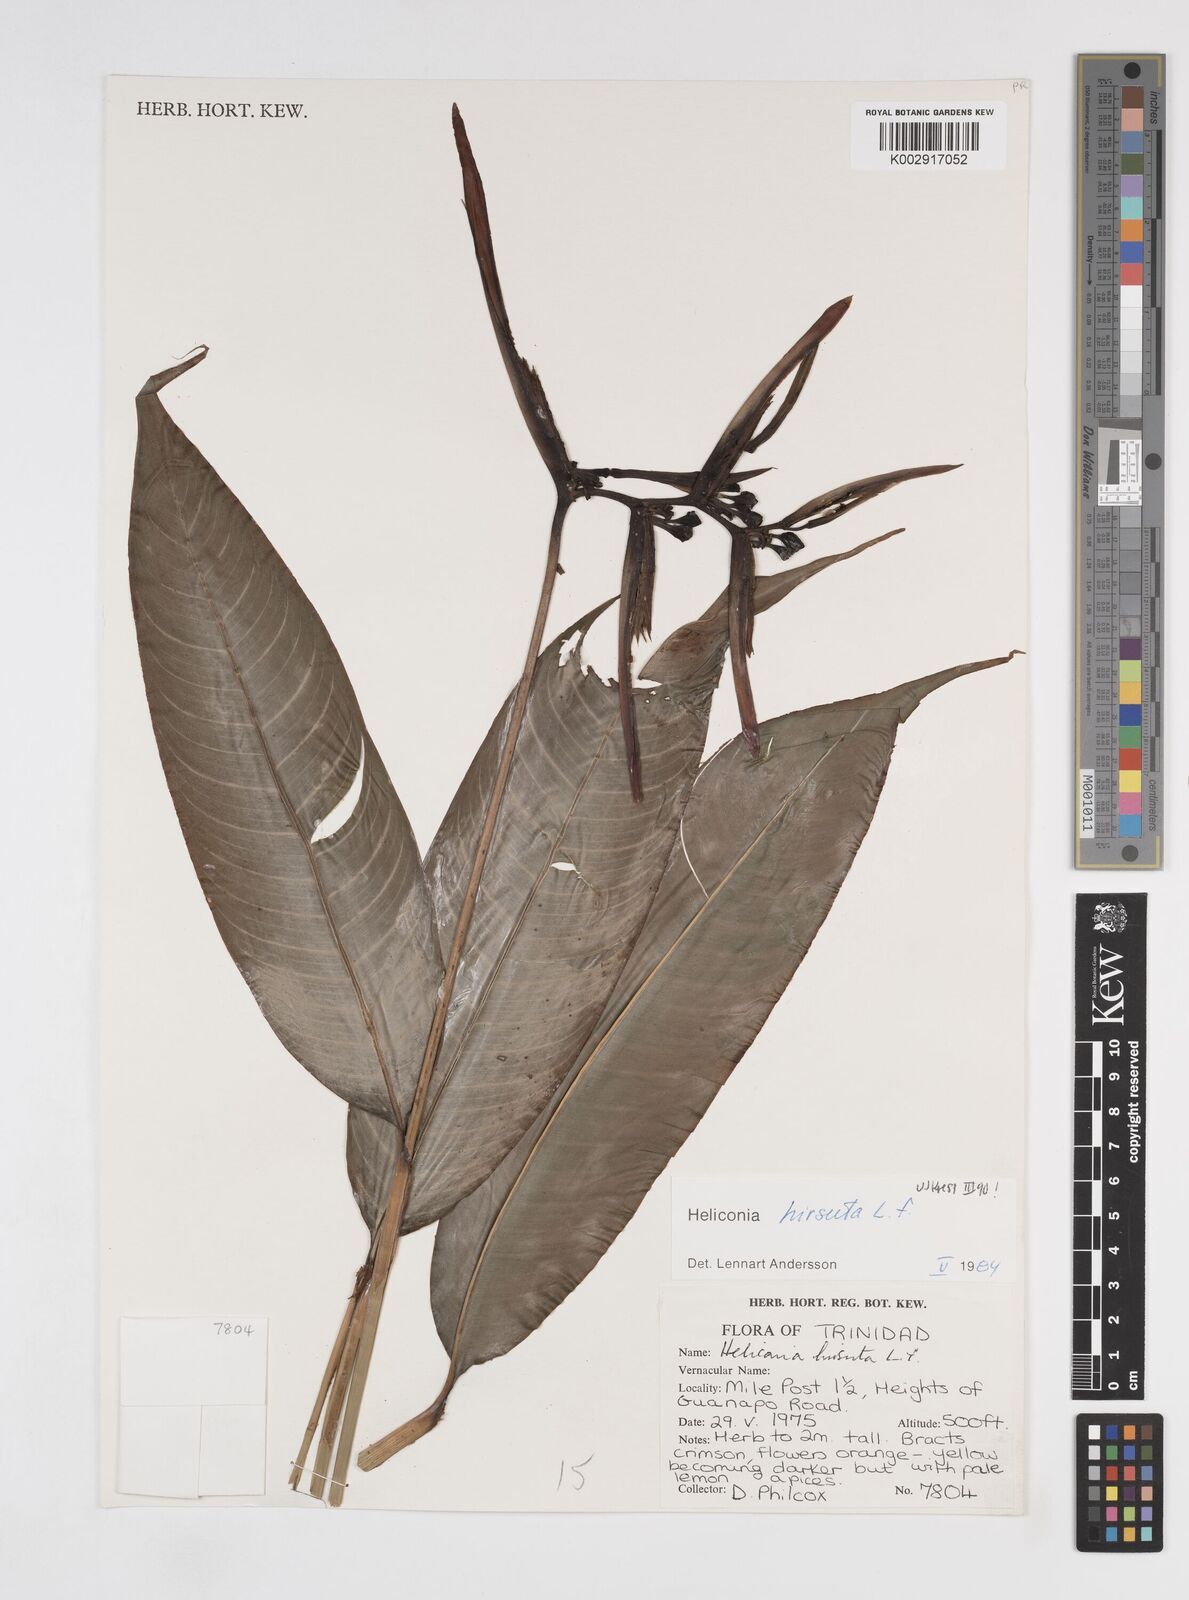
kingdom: Plantae
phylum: Tracheophyta
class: Liliopsida
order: Zingiberales
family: Heliconiaceae
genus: Heliconia
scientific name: Heliconia hirsuta
